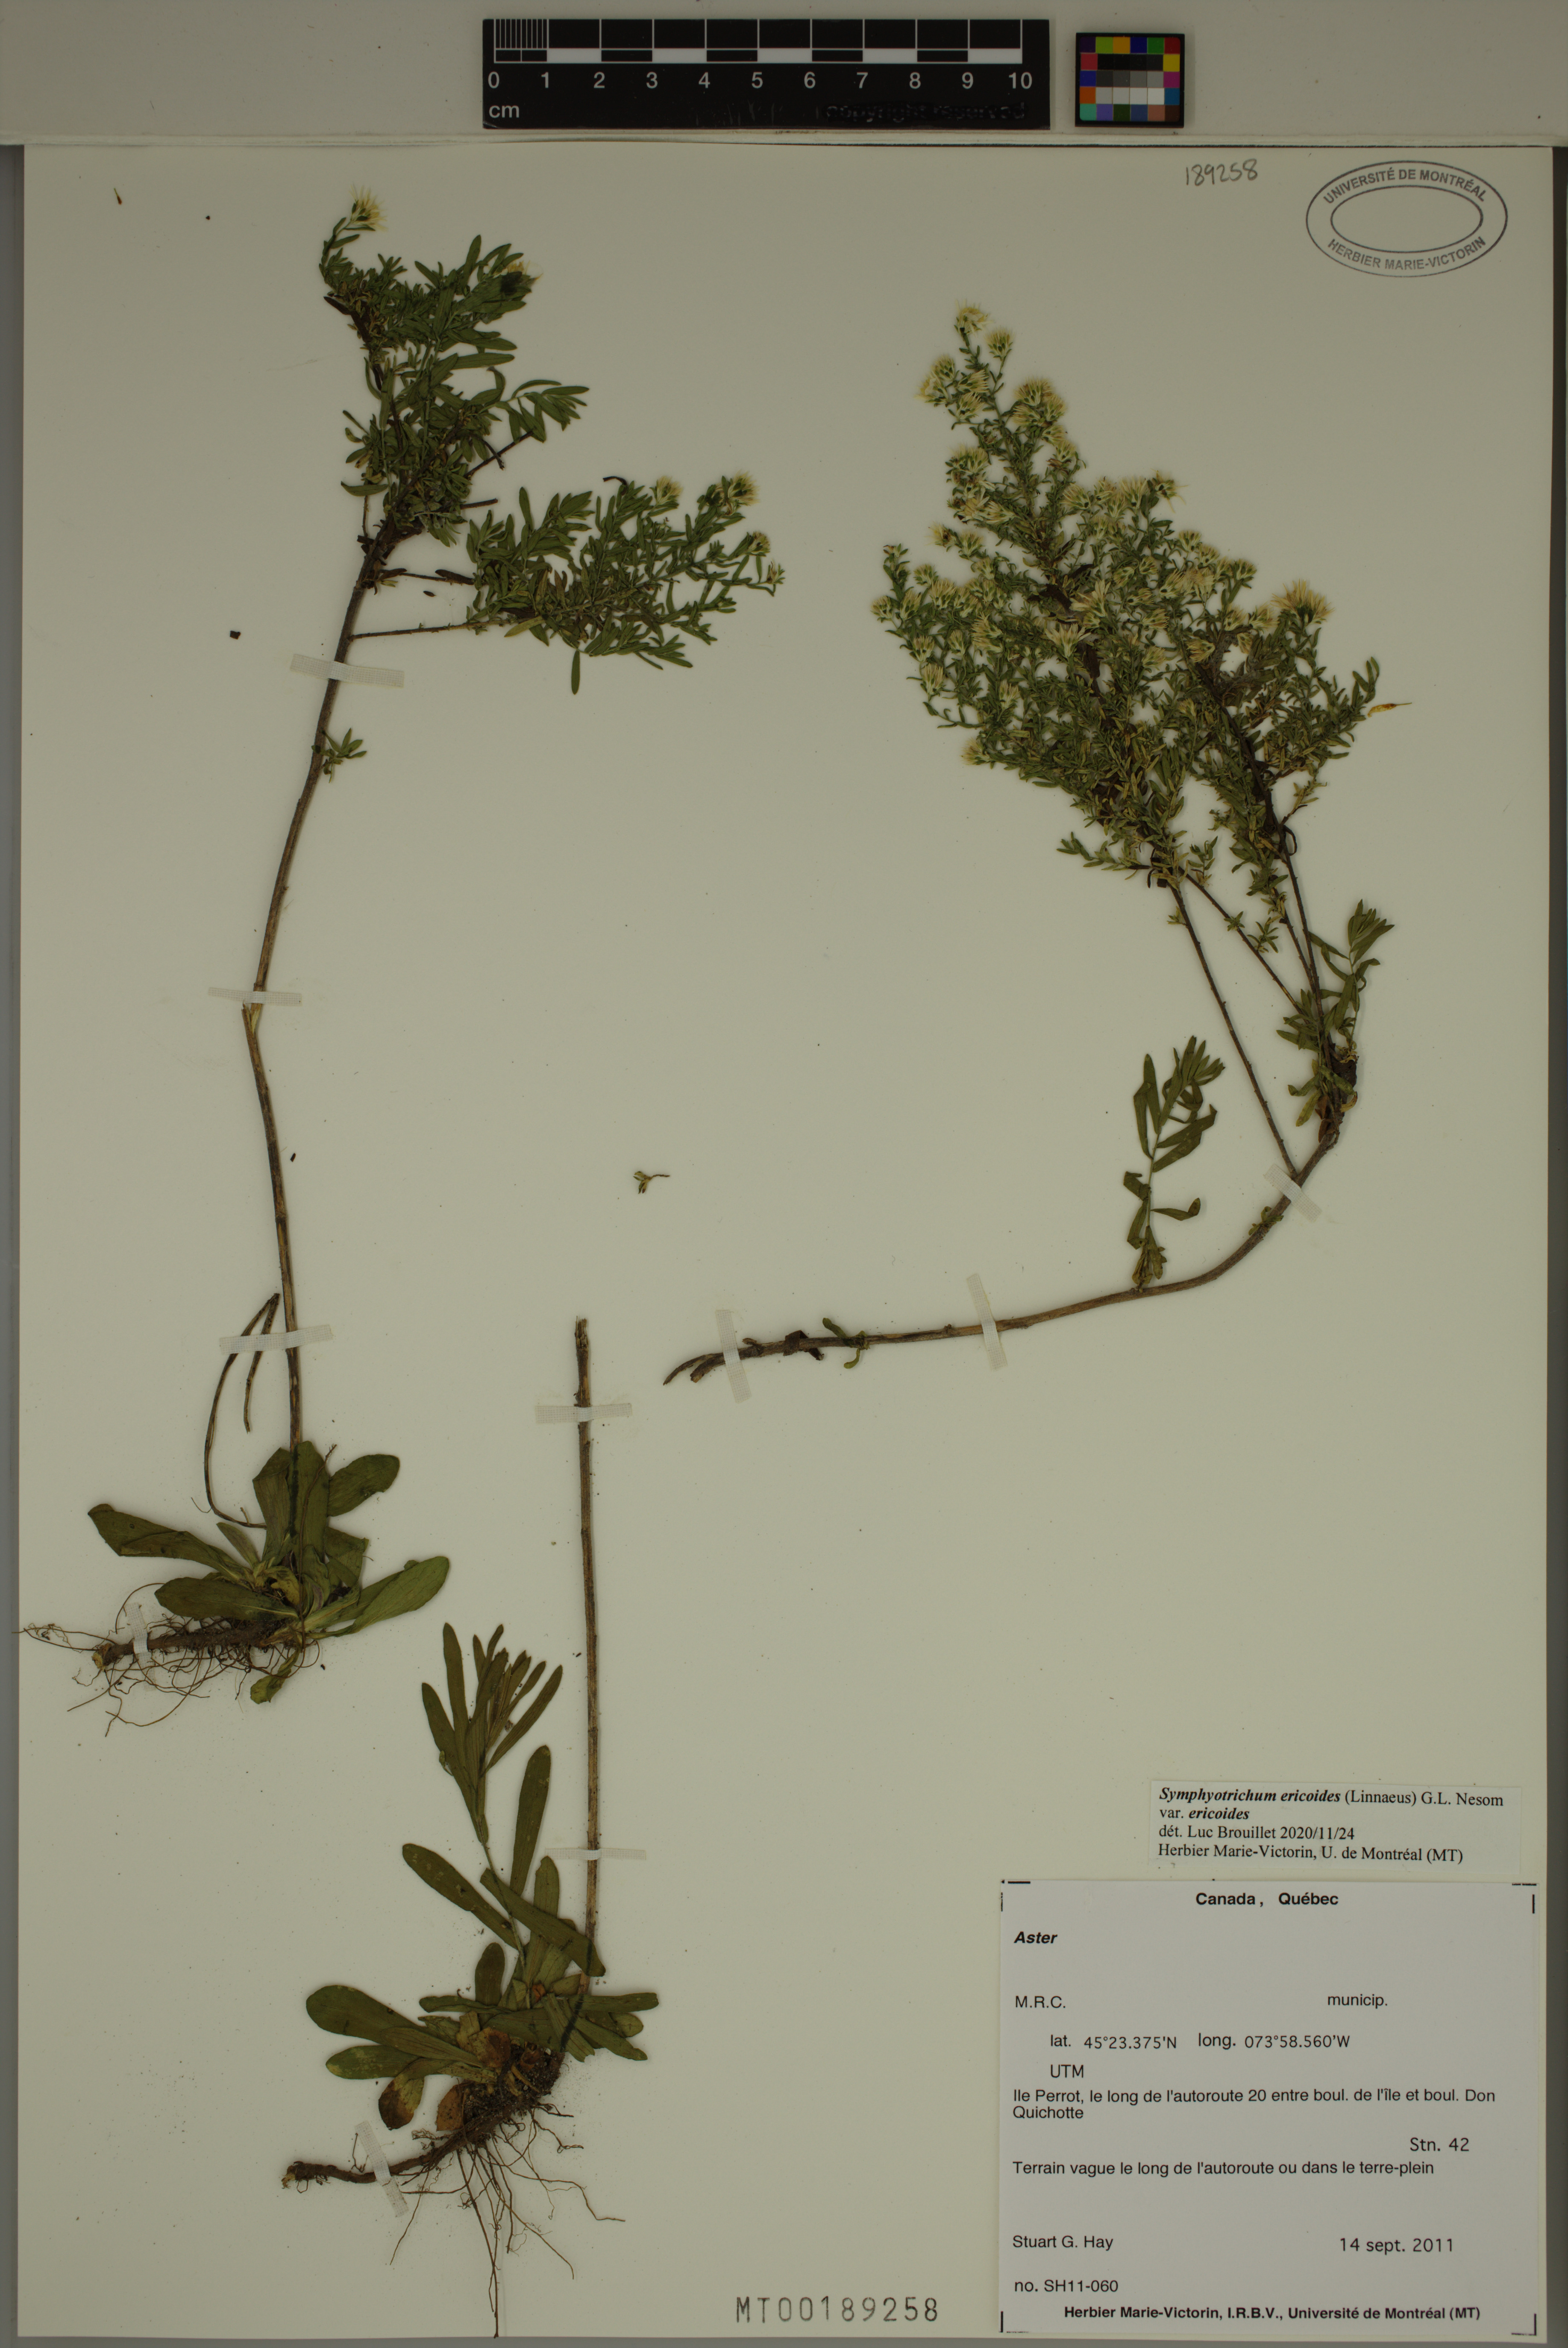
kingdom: Plantae
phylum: Tracheophyta
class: Magnoliopsida
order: Asterales
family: Asteraceae
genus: Symphyotrichum
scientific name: Symphyotrichum ericoides
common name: Heath aster
